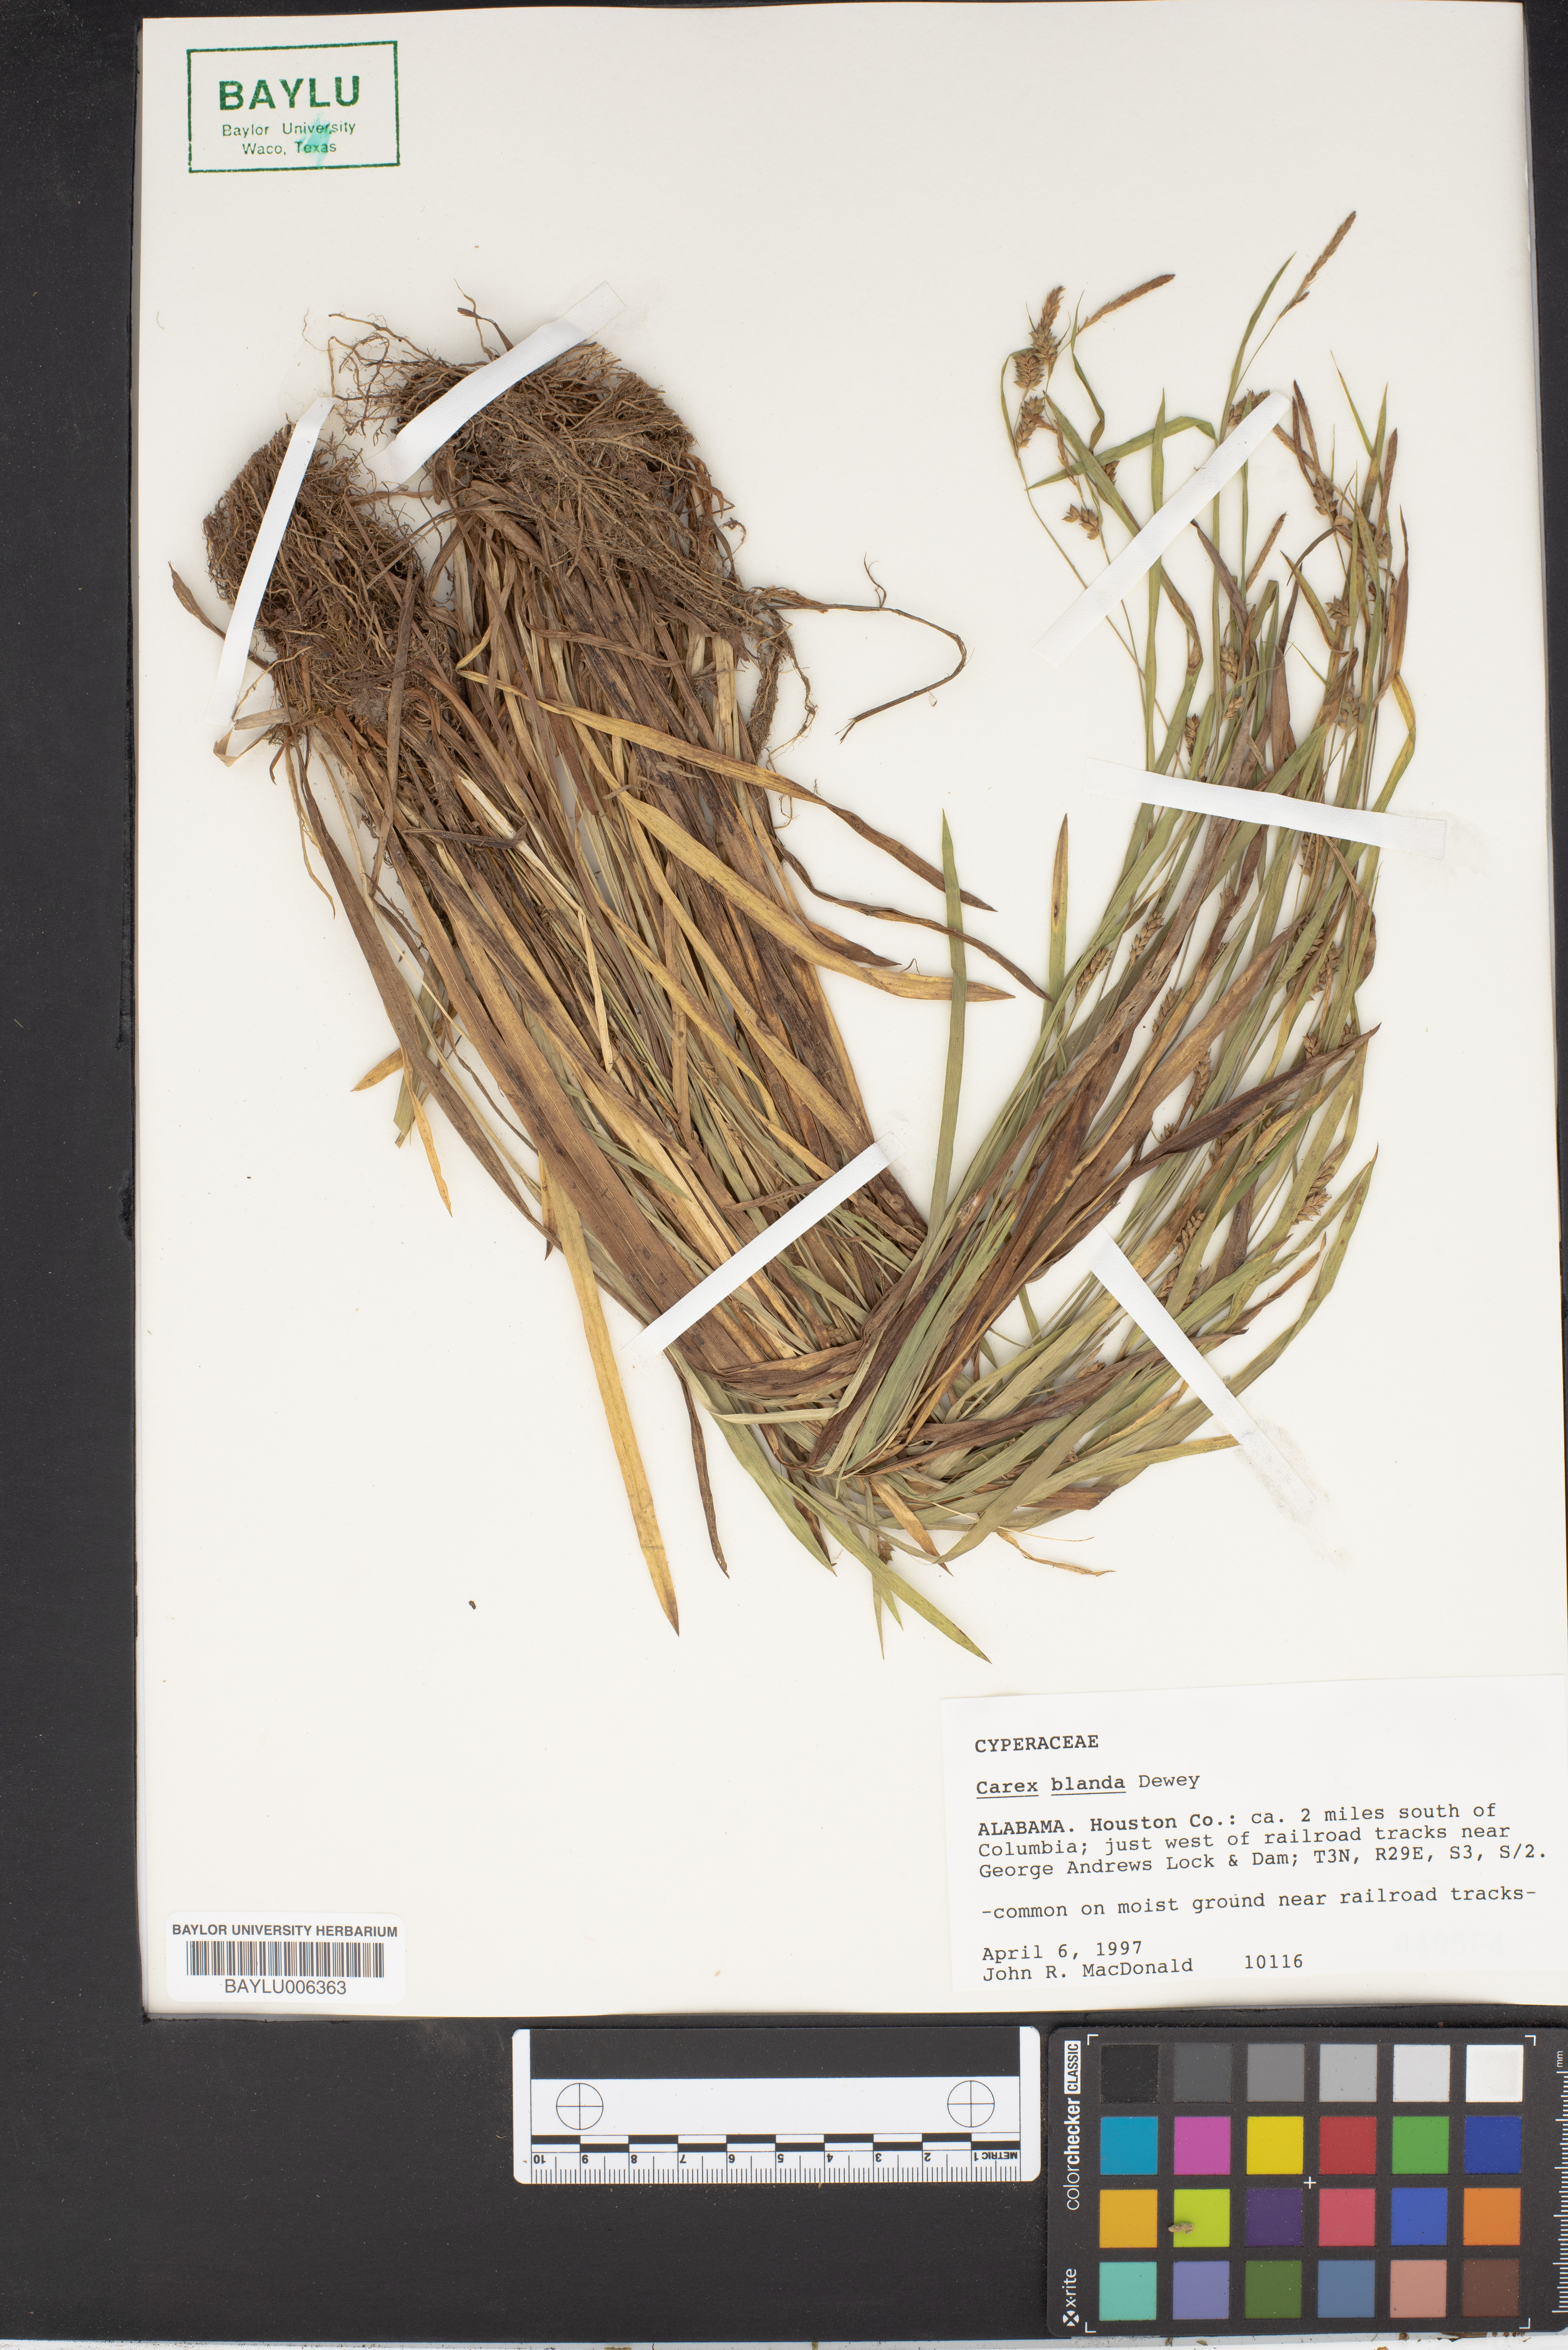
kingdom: Plantae
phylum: Tracheophyta
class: Liliopsida
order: Poales
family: Cyperaceae
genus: Carex
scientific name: Carex blanda
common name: Bland sedge
